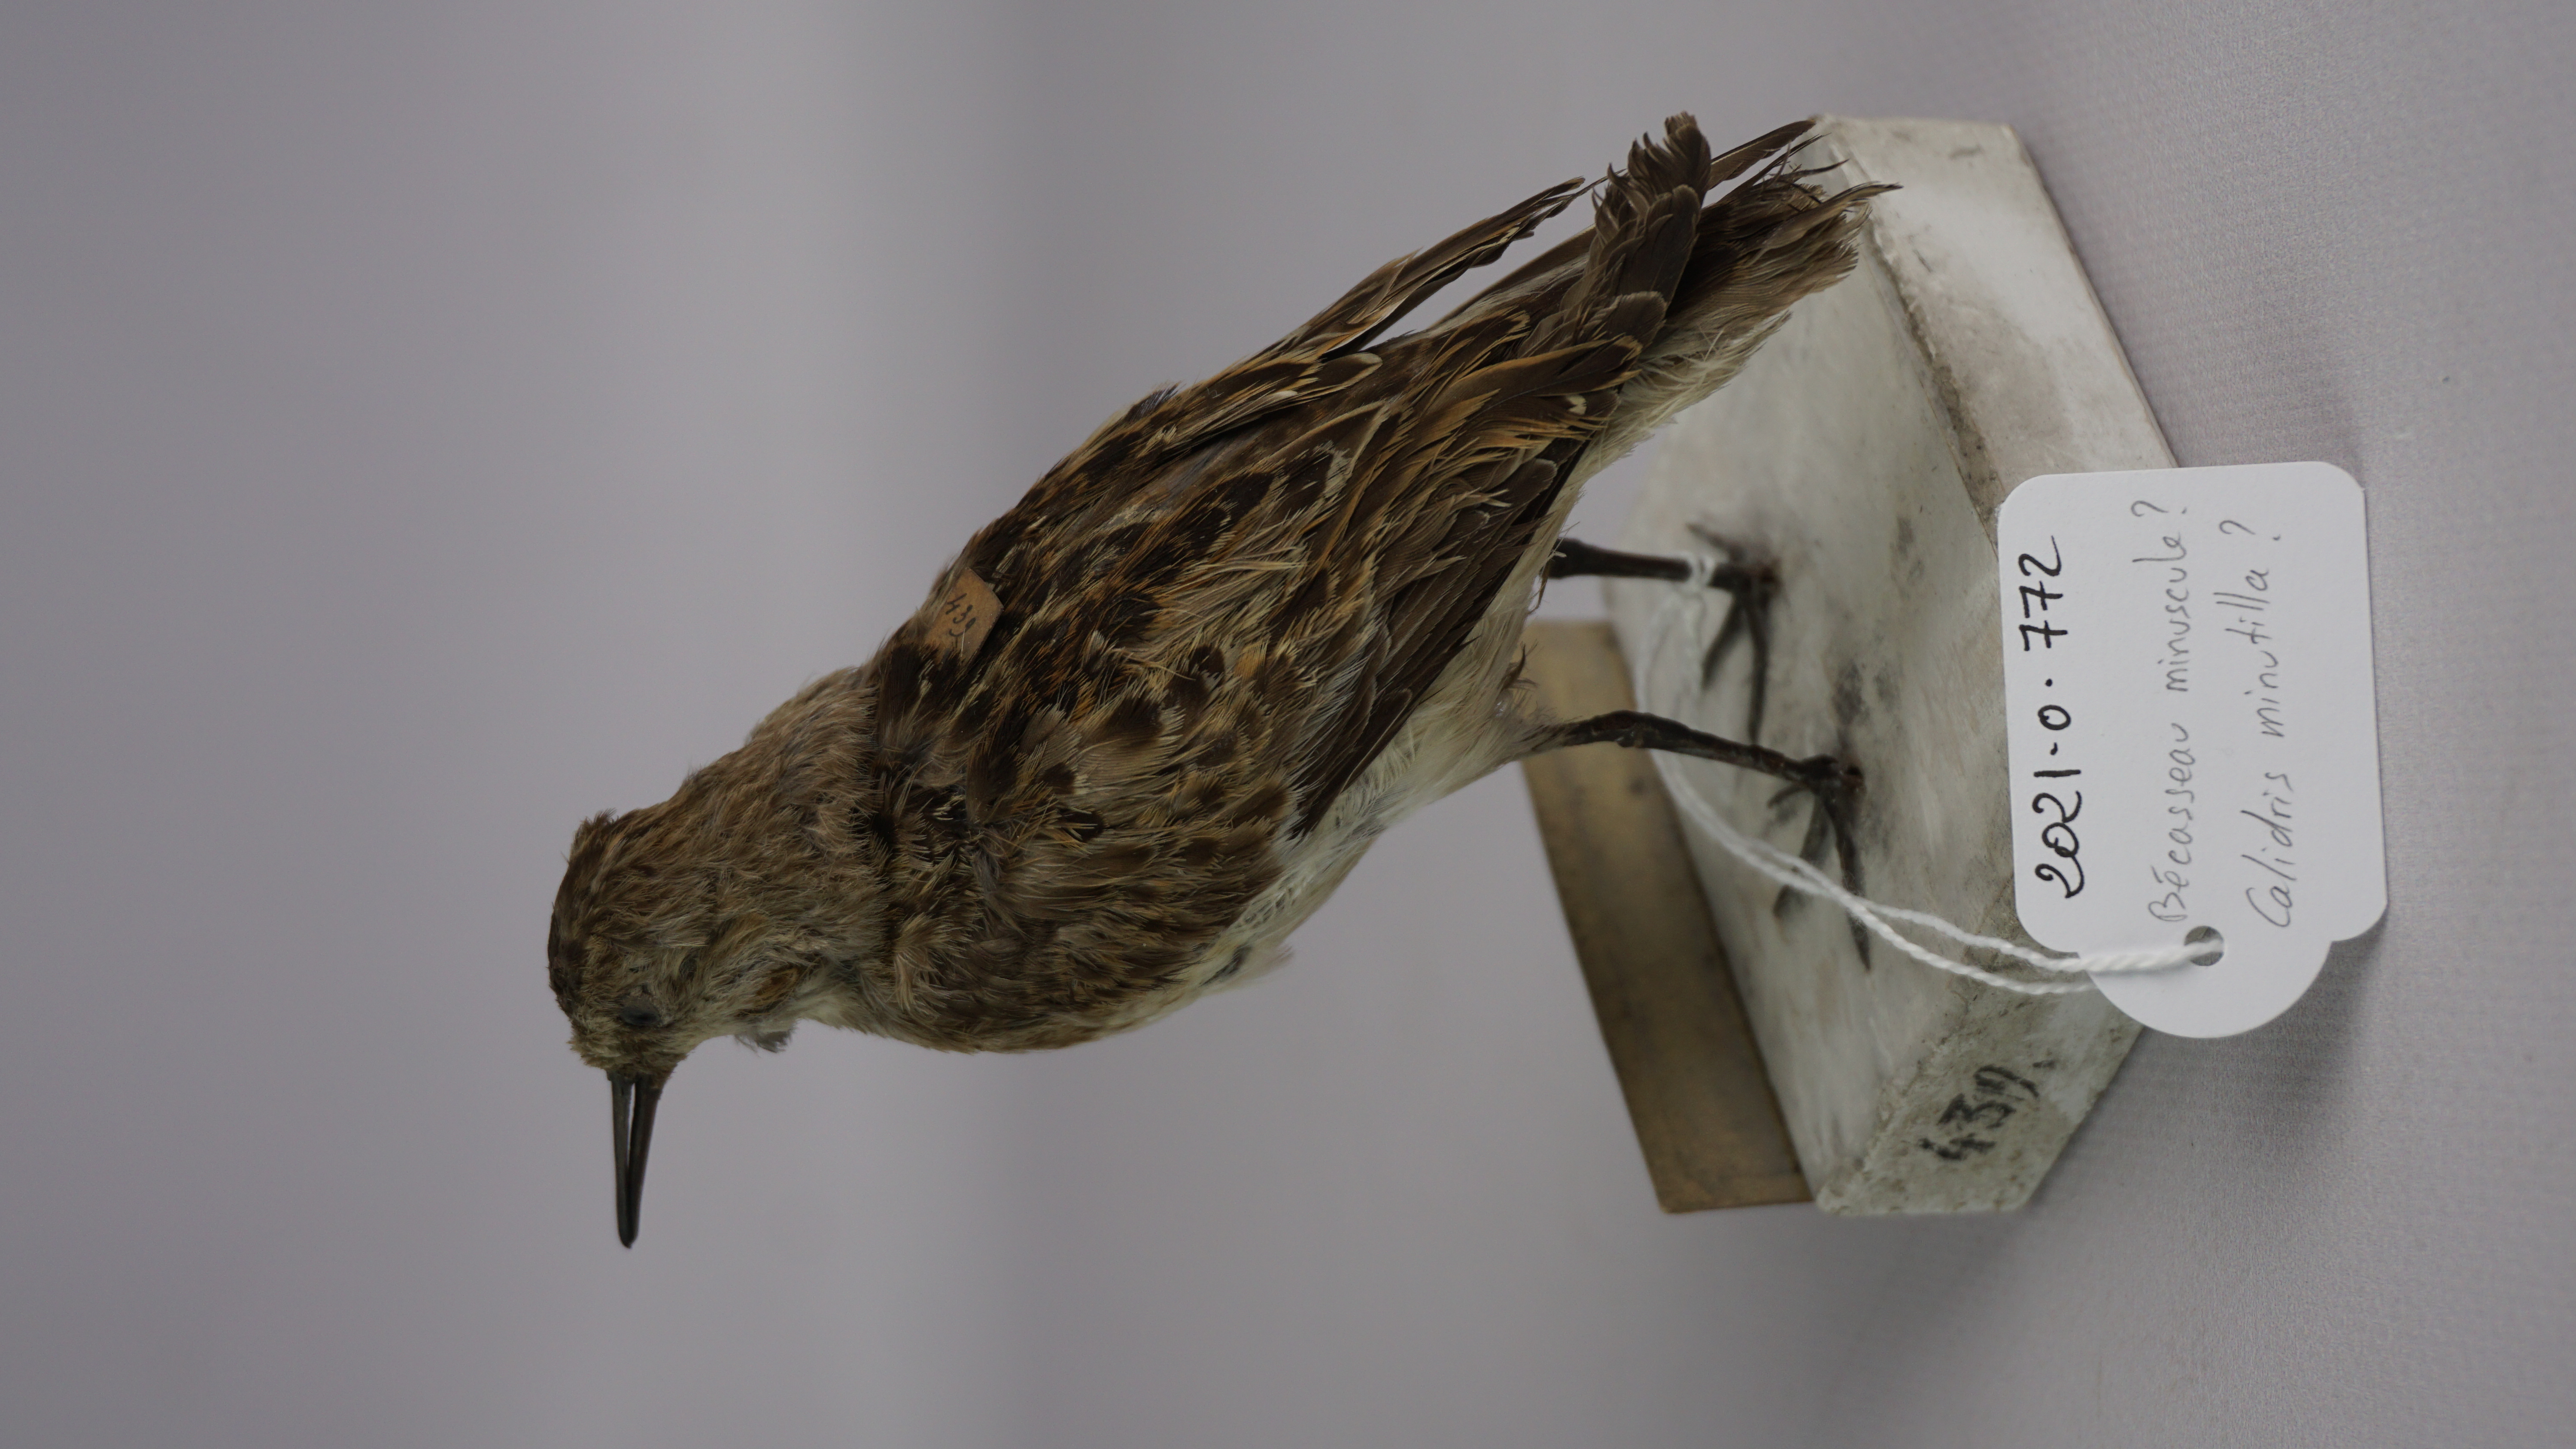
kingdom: Animalia
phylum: Chordata
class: Aves
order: Charadriiformes
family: Scolopacidae
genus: Calidris
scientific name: Calidris minutilla
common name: Least sandpiper
